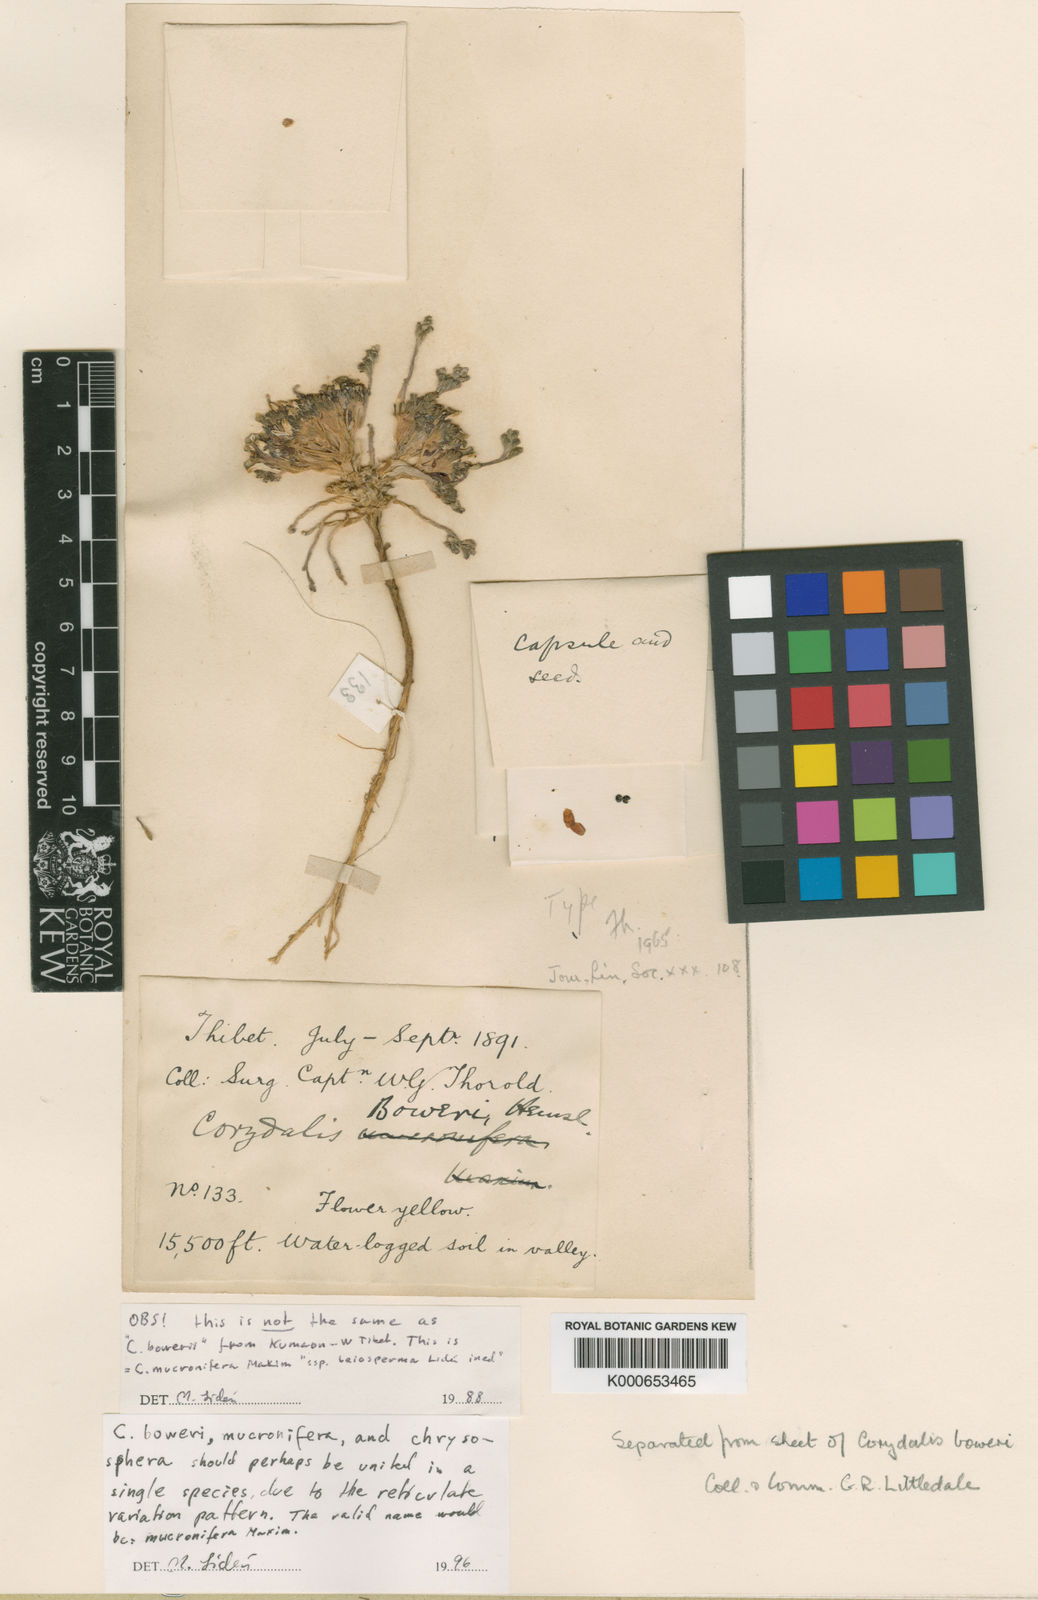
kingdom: Plantae
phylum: Tracheophyta
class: Magnoliopsida
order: Ranunculales
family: Papaveraceae
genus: Corydalis
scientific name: Corydalis mucronifera
